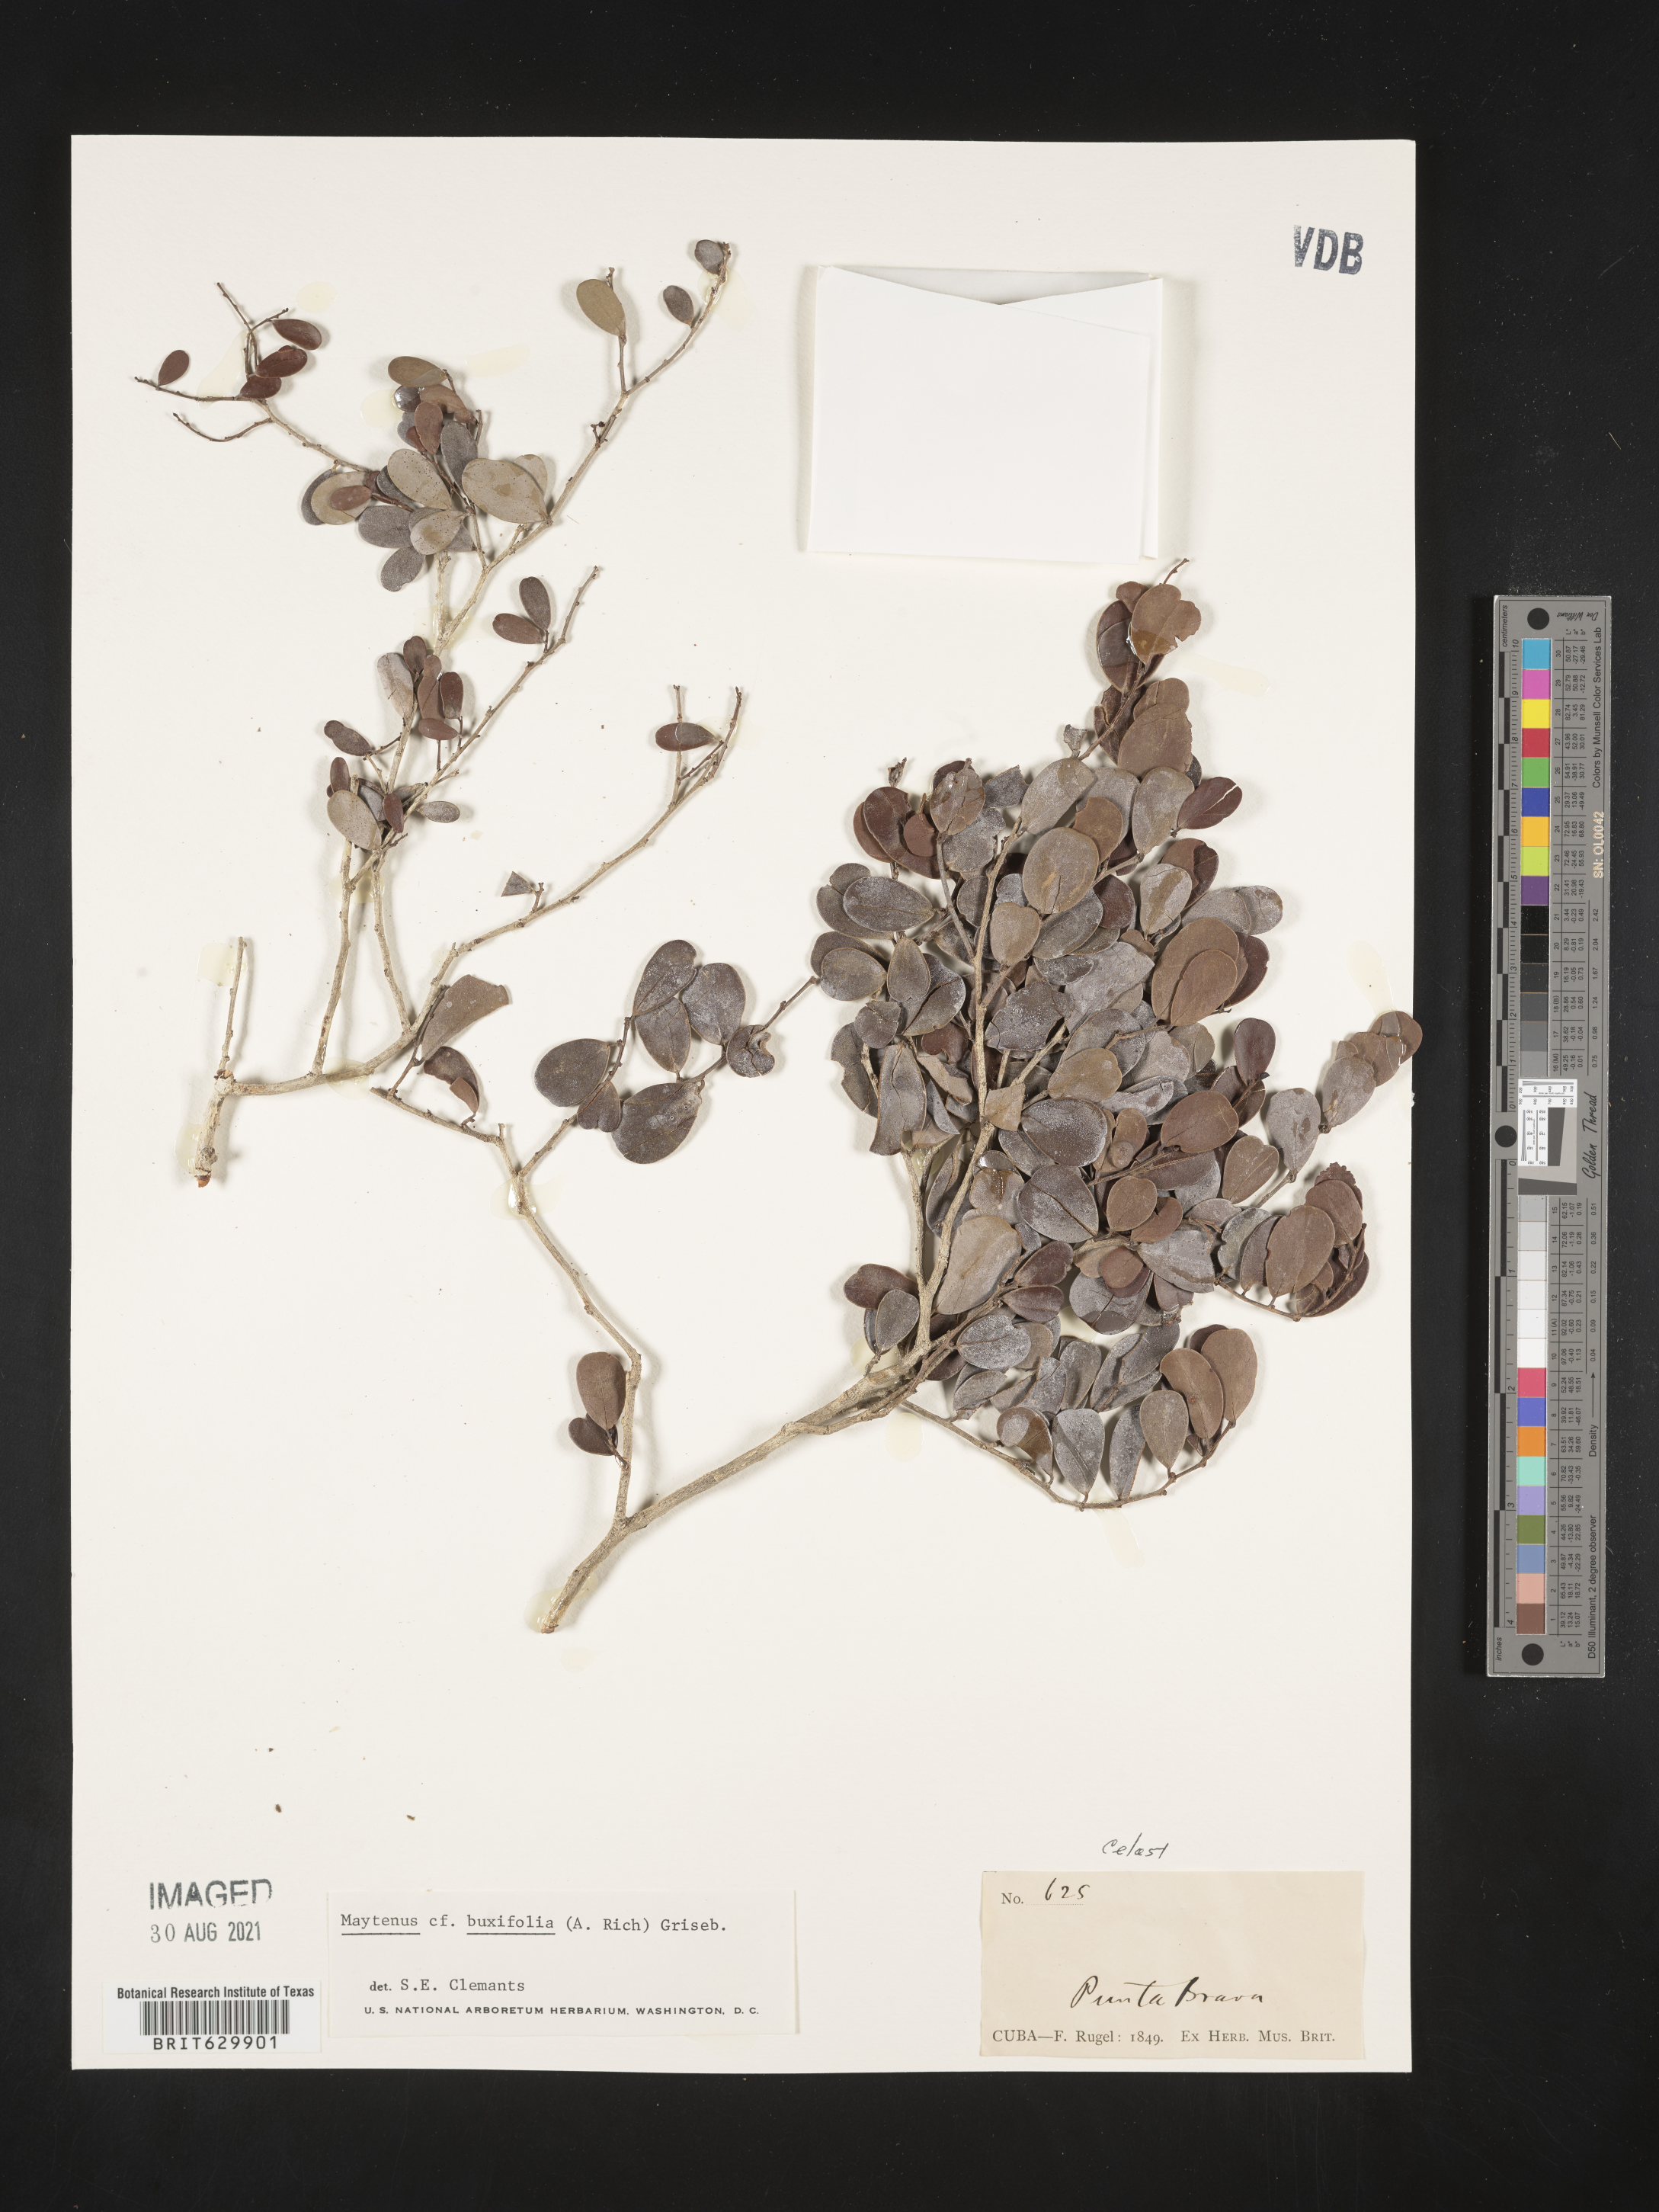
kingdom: Plantae
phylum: Tracheophyta
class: Magnoliopsida
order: Celastrales
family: Celastraceae
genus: Monteverdia
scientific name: Monteverdia buxifolia
